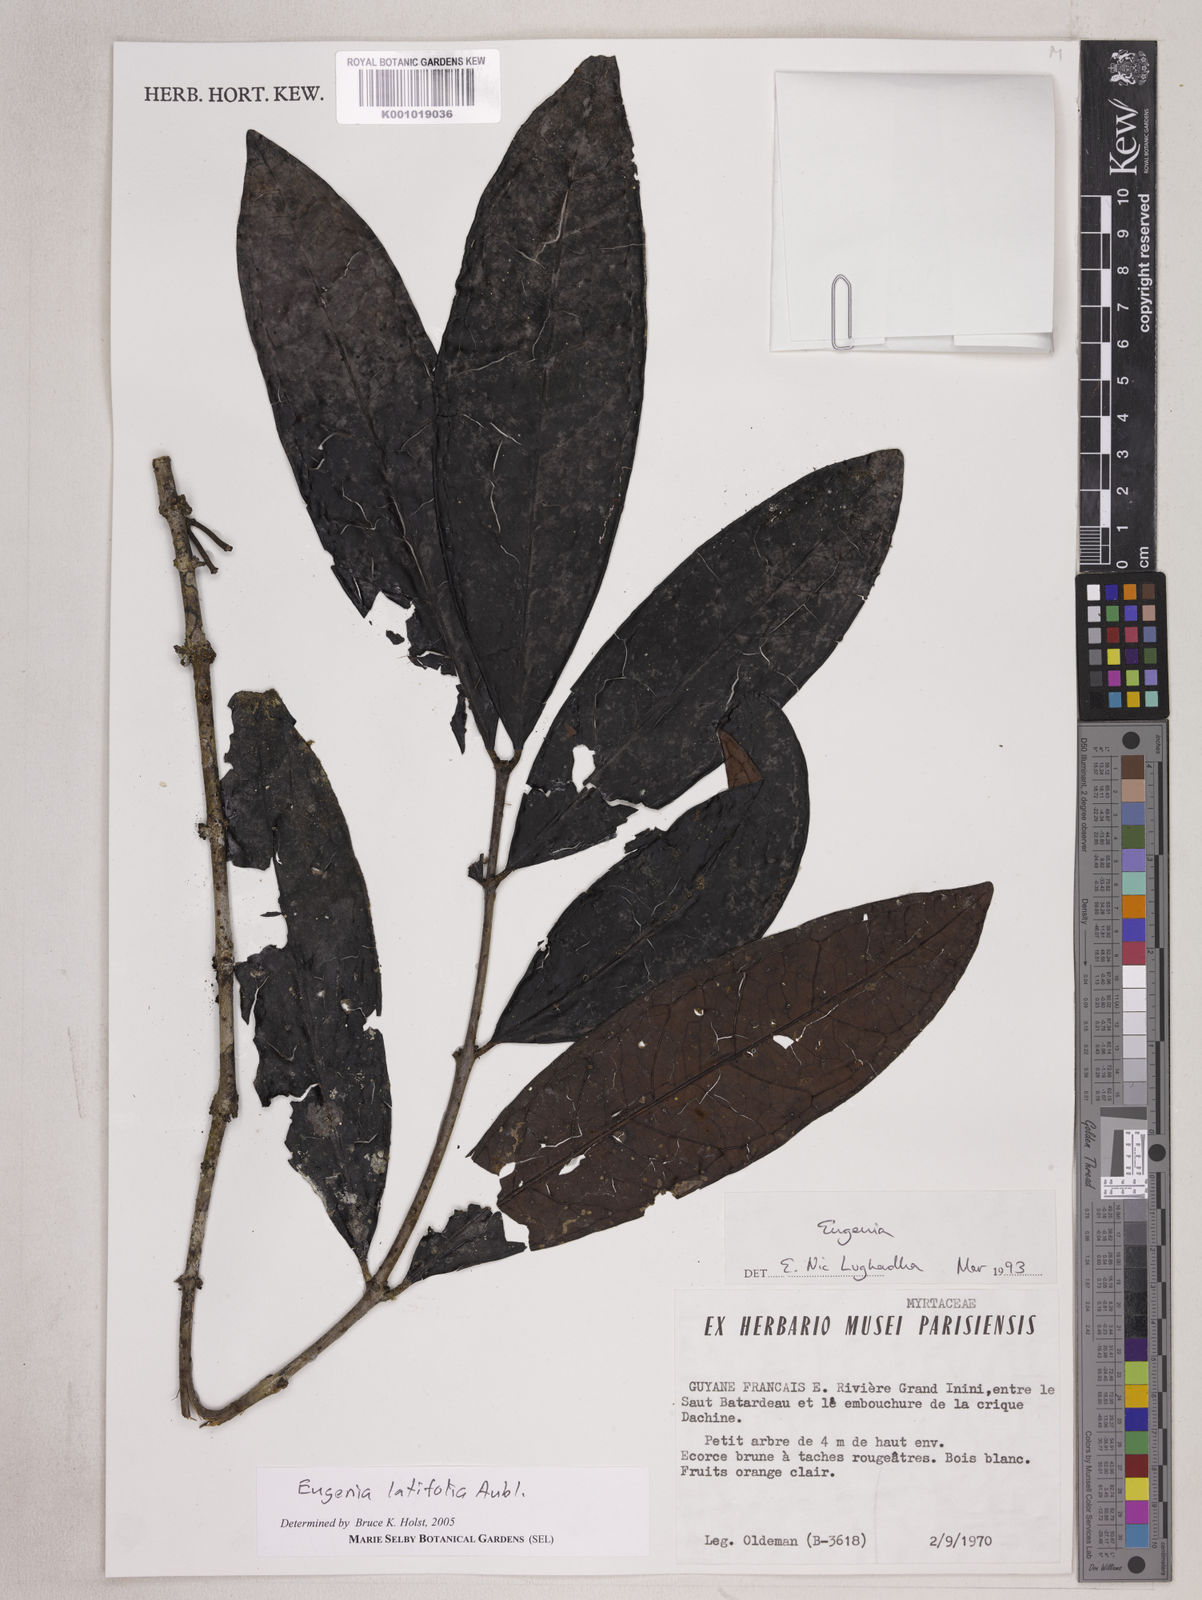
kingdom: Plantae
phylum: Tracheophyta
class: Magnoliopsida
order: Myrtales
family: Myrtaceae
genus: Eugenia
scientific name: Eugenia latifolia
